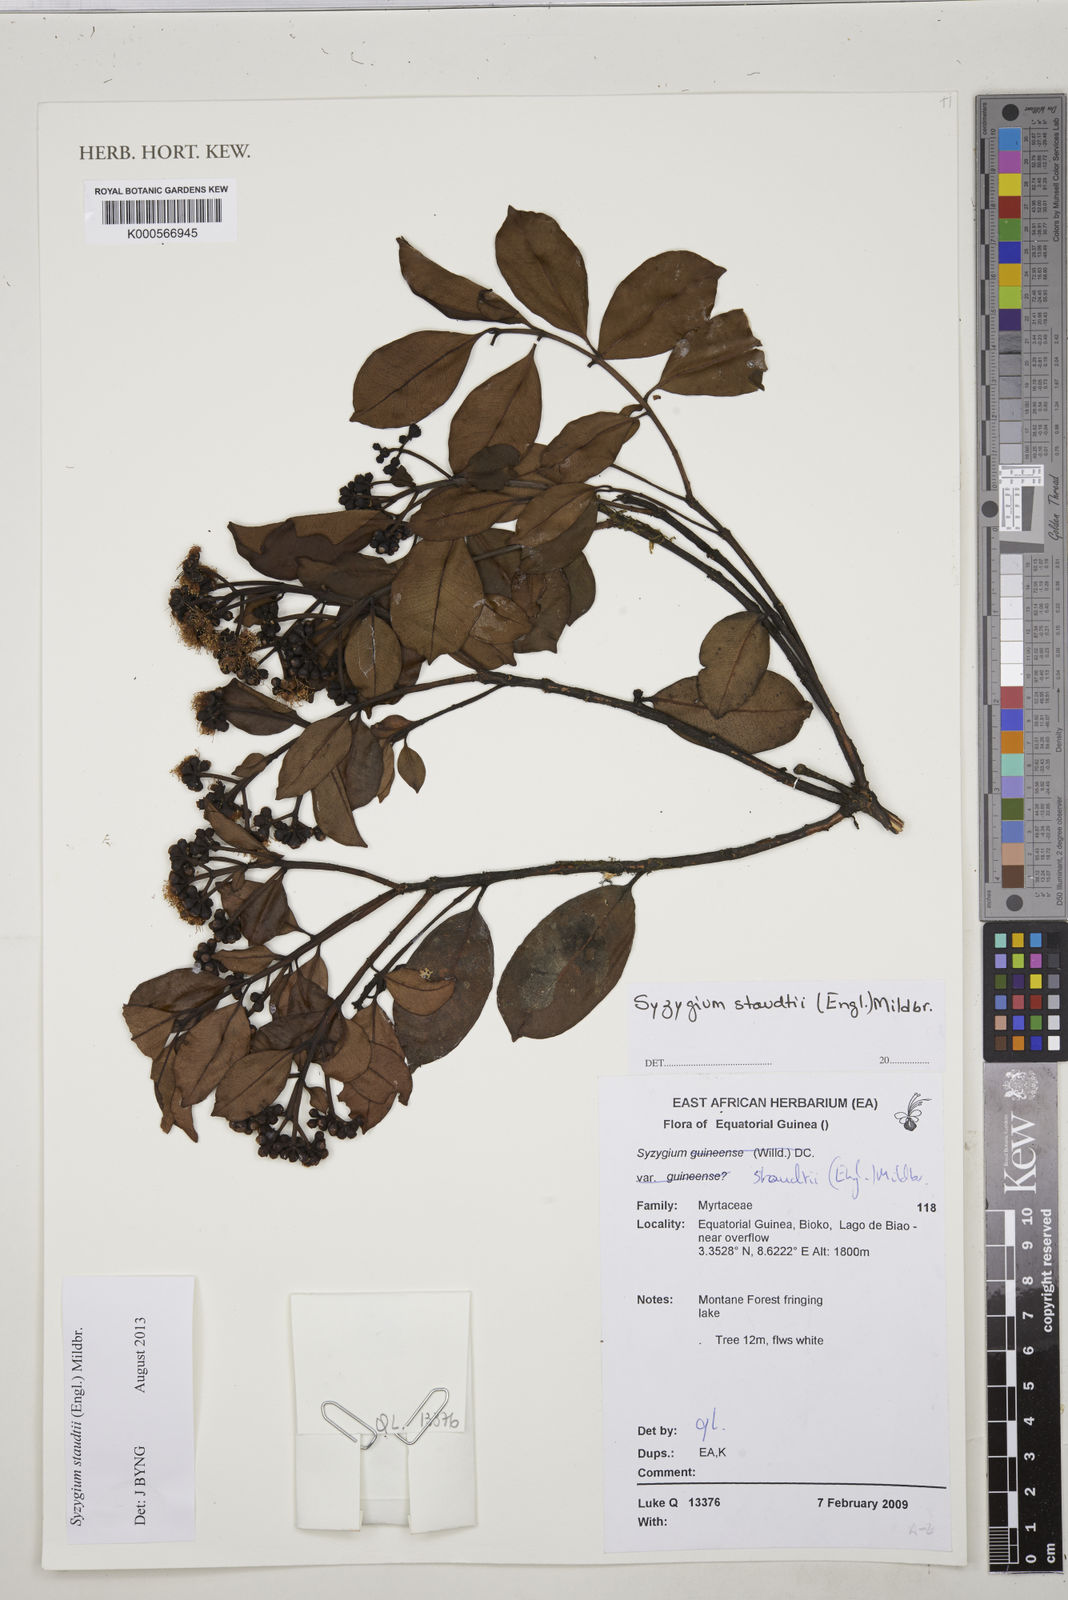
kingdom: Plantae
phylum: Tracheophyta
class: Magnoliopsida
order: Myrtales
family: Myrtaceae
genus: Syzygium
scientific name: Syzygium staudtii
